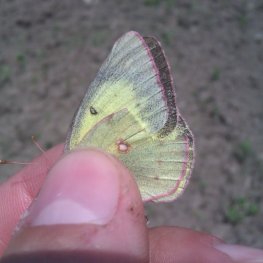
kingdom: Animalia
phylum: Arthropoda
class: Insecta
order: Lepidoptera
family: Pieridae
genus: Colias
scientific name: Colias philodice
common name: Clouded Sulphur
